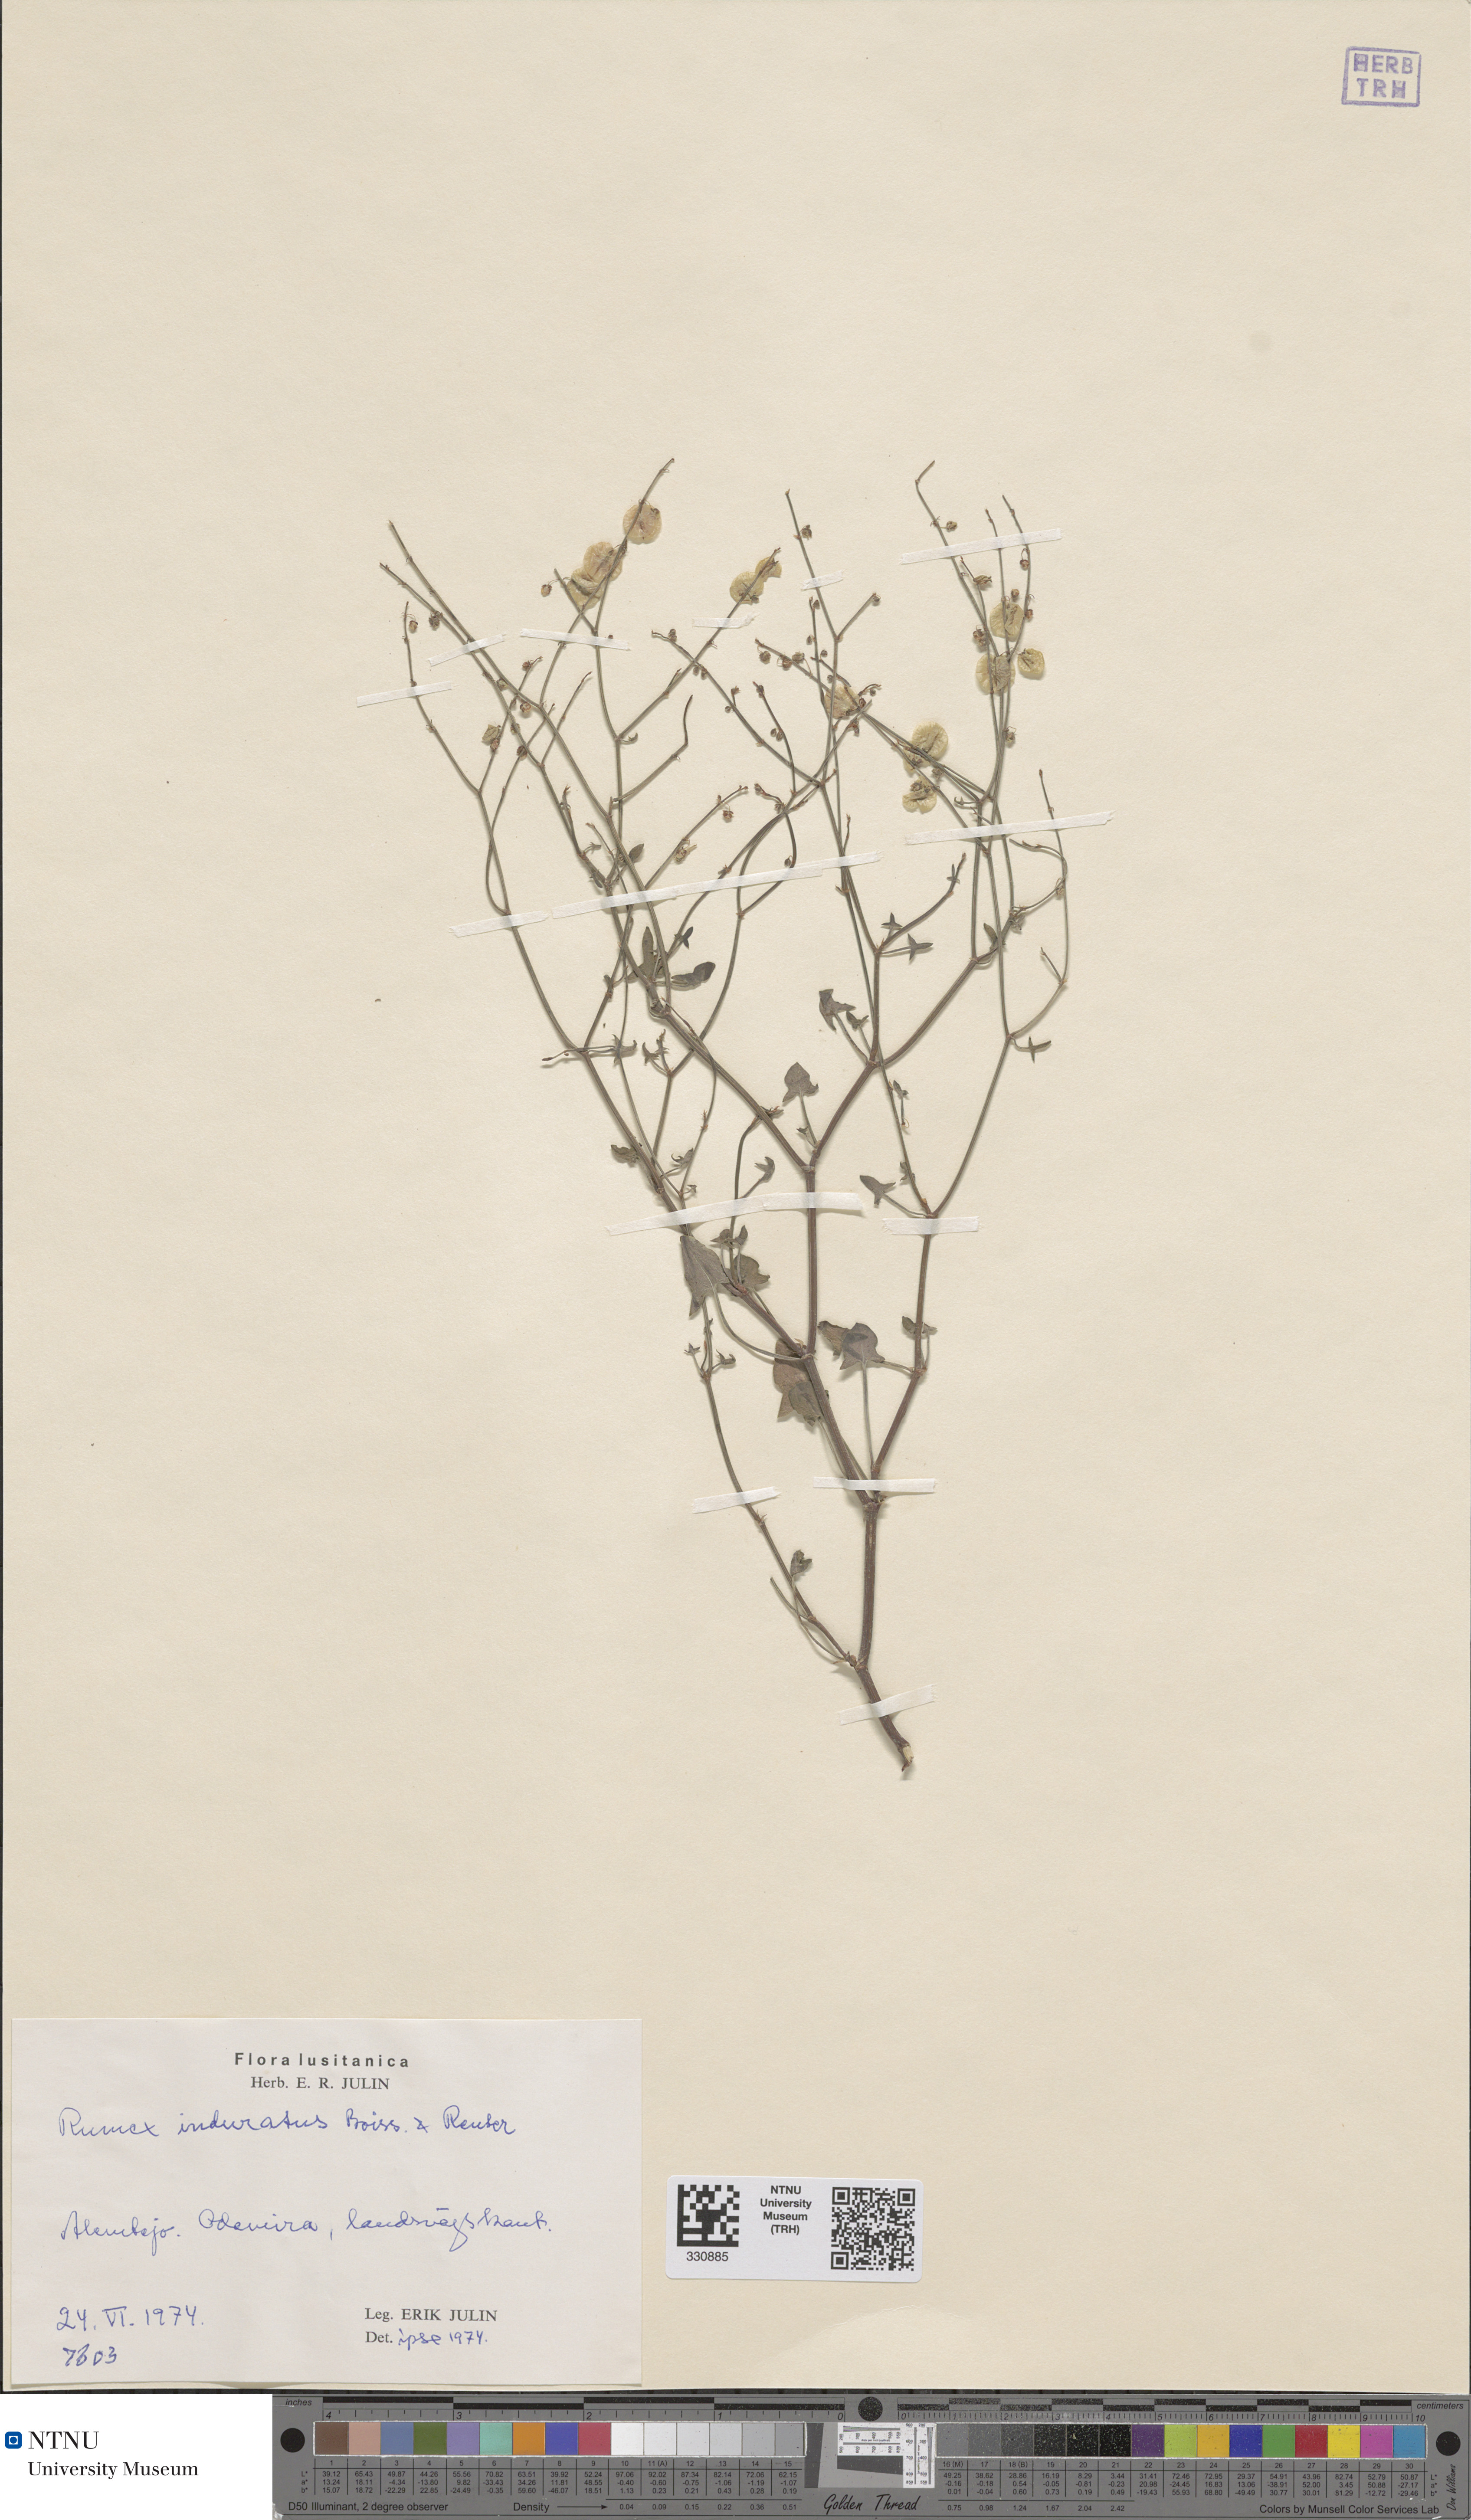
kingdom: Plantae
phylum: Tracheophyta
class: Magnoliopsida
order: Caryophyllales
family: Polygonaceae
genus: Rumex
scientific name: Rumex induratus
